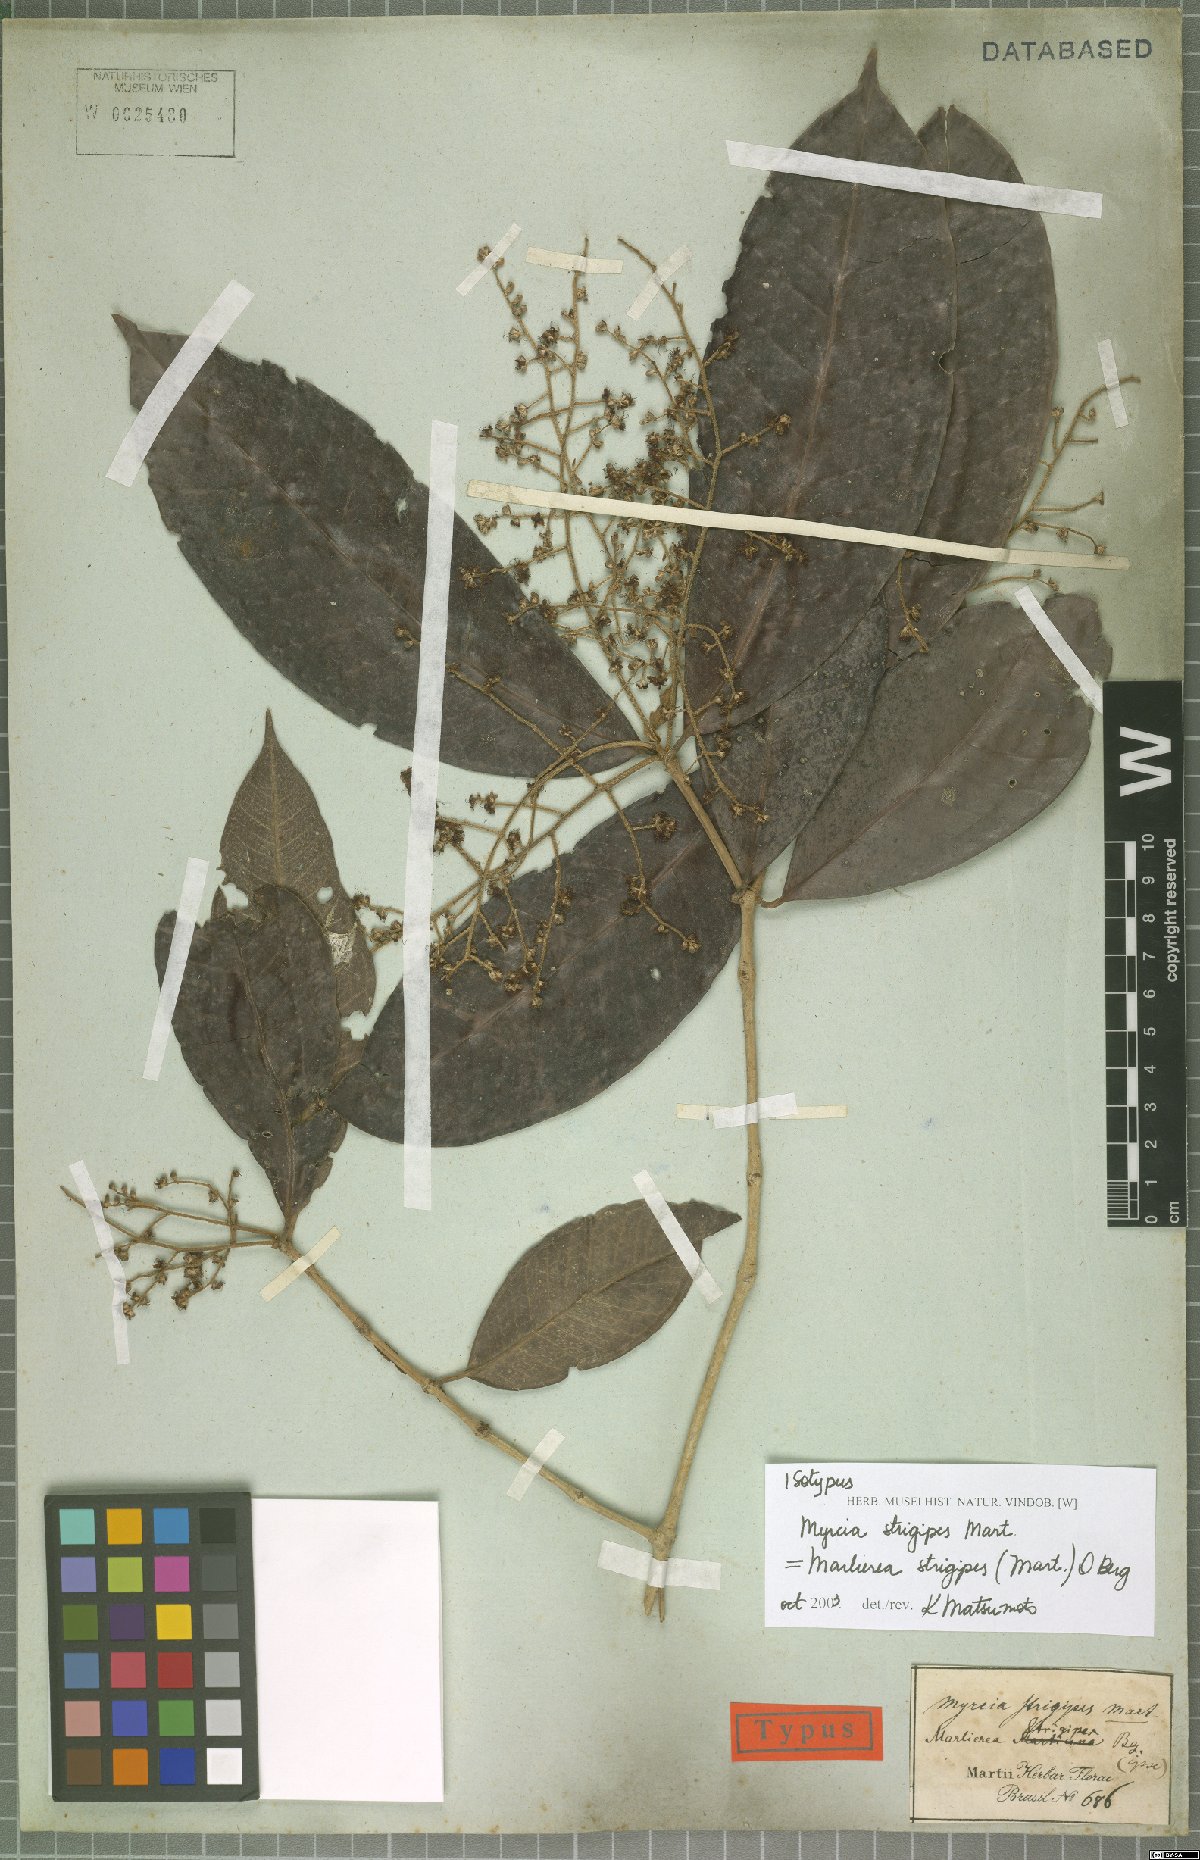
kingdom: Plantae
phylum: Tracheophyta
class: Magnoliopsida
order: Myrtales
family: Myrtaceae
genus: Myrcia
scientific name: Myrcia strigipes
